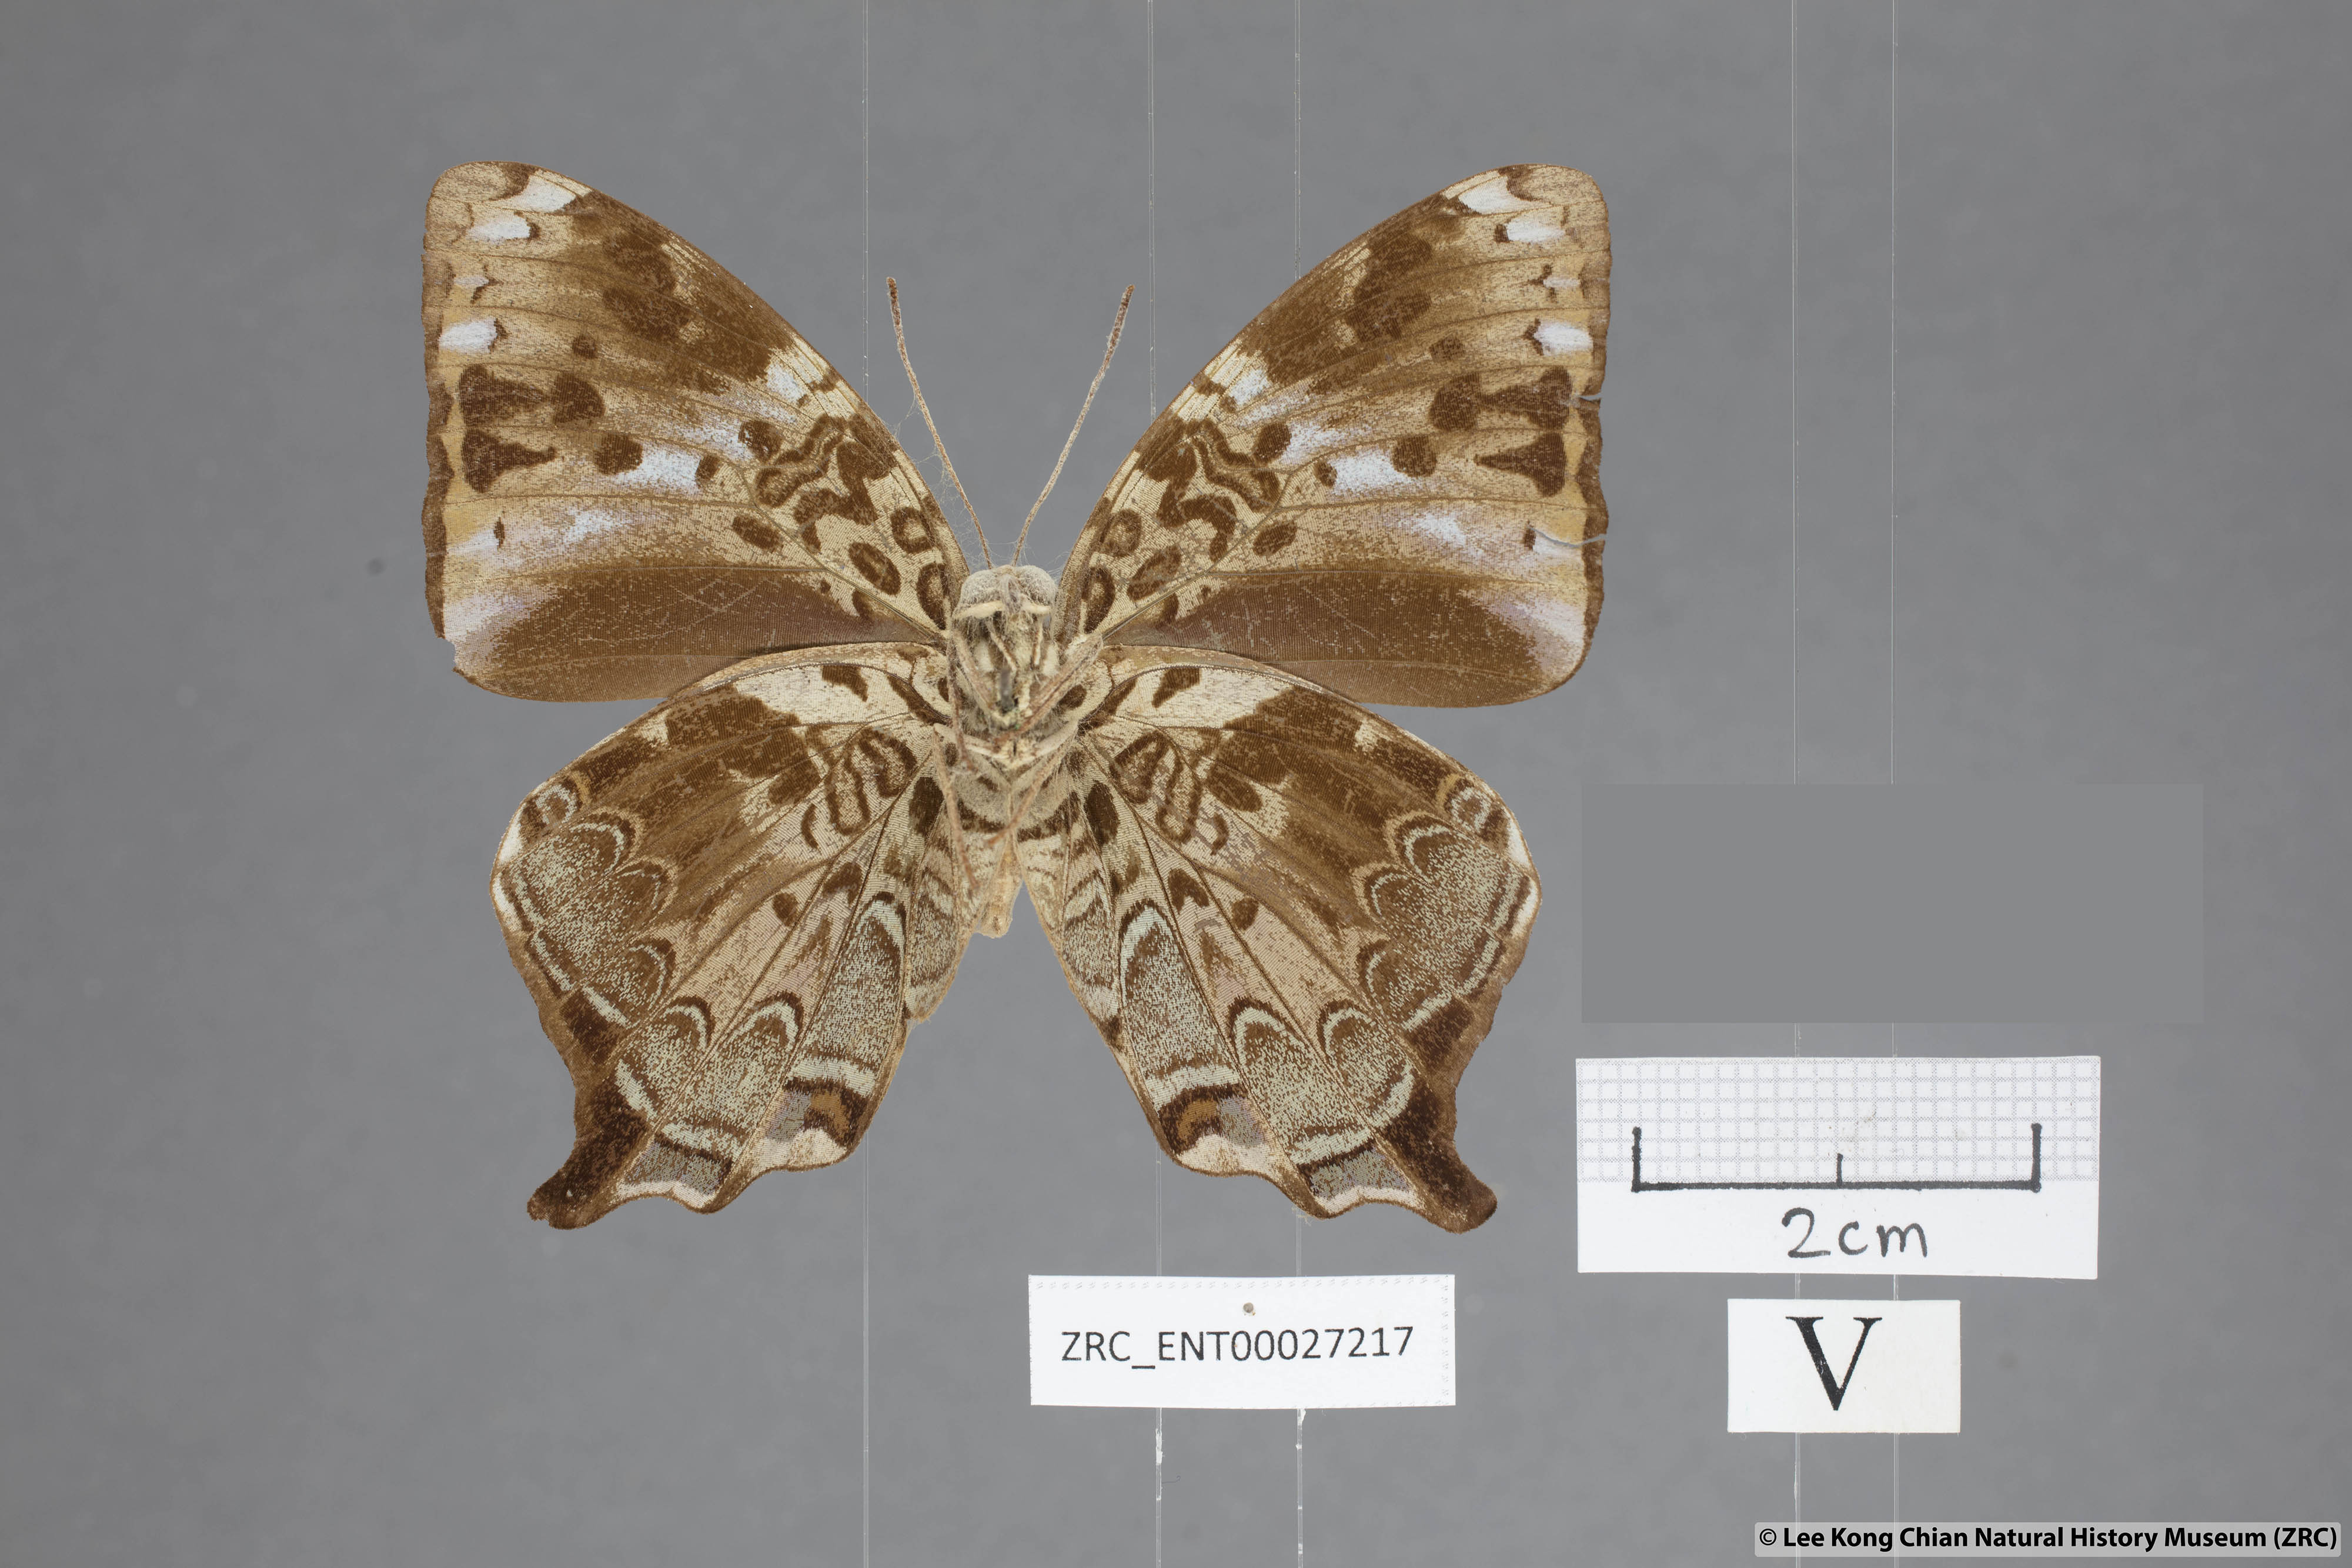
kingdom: Animalia
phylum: Arthropoda
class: Insecta
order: Lepidoptera
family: Nymphalidae
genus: Prothoe
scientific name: Prothoe
